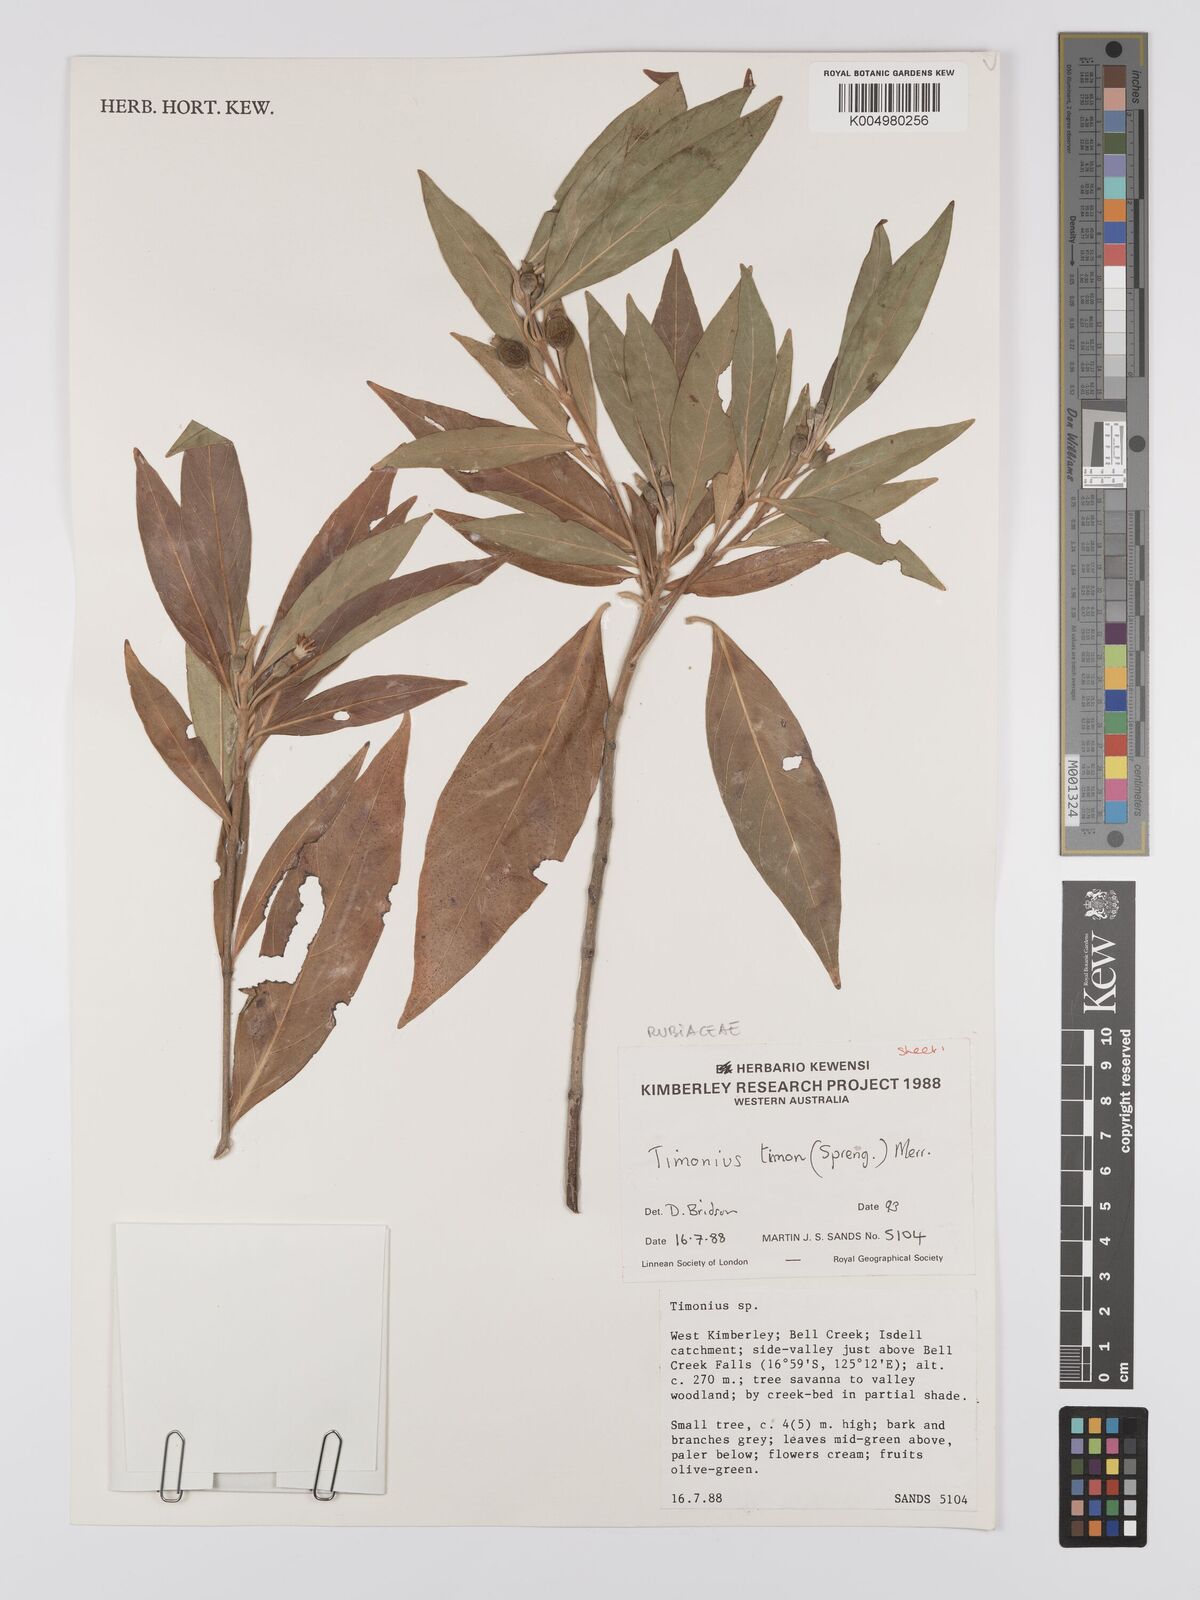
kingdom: Plantae
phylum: Tracheophyta
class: Magnoliopsida
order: Gentianales
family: Rubiaceae
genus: Timonius
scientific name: Timonius timon
